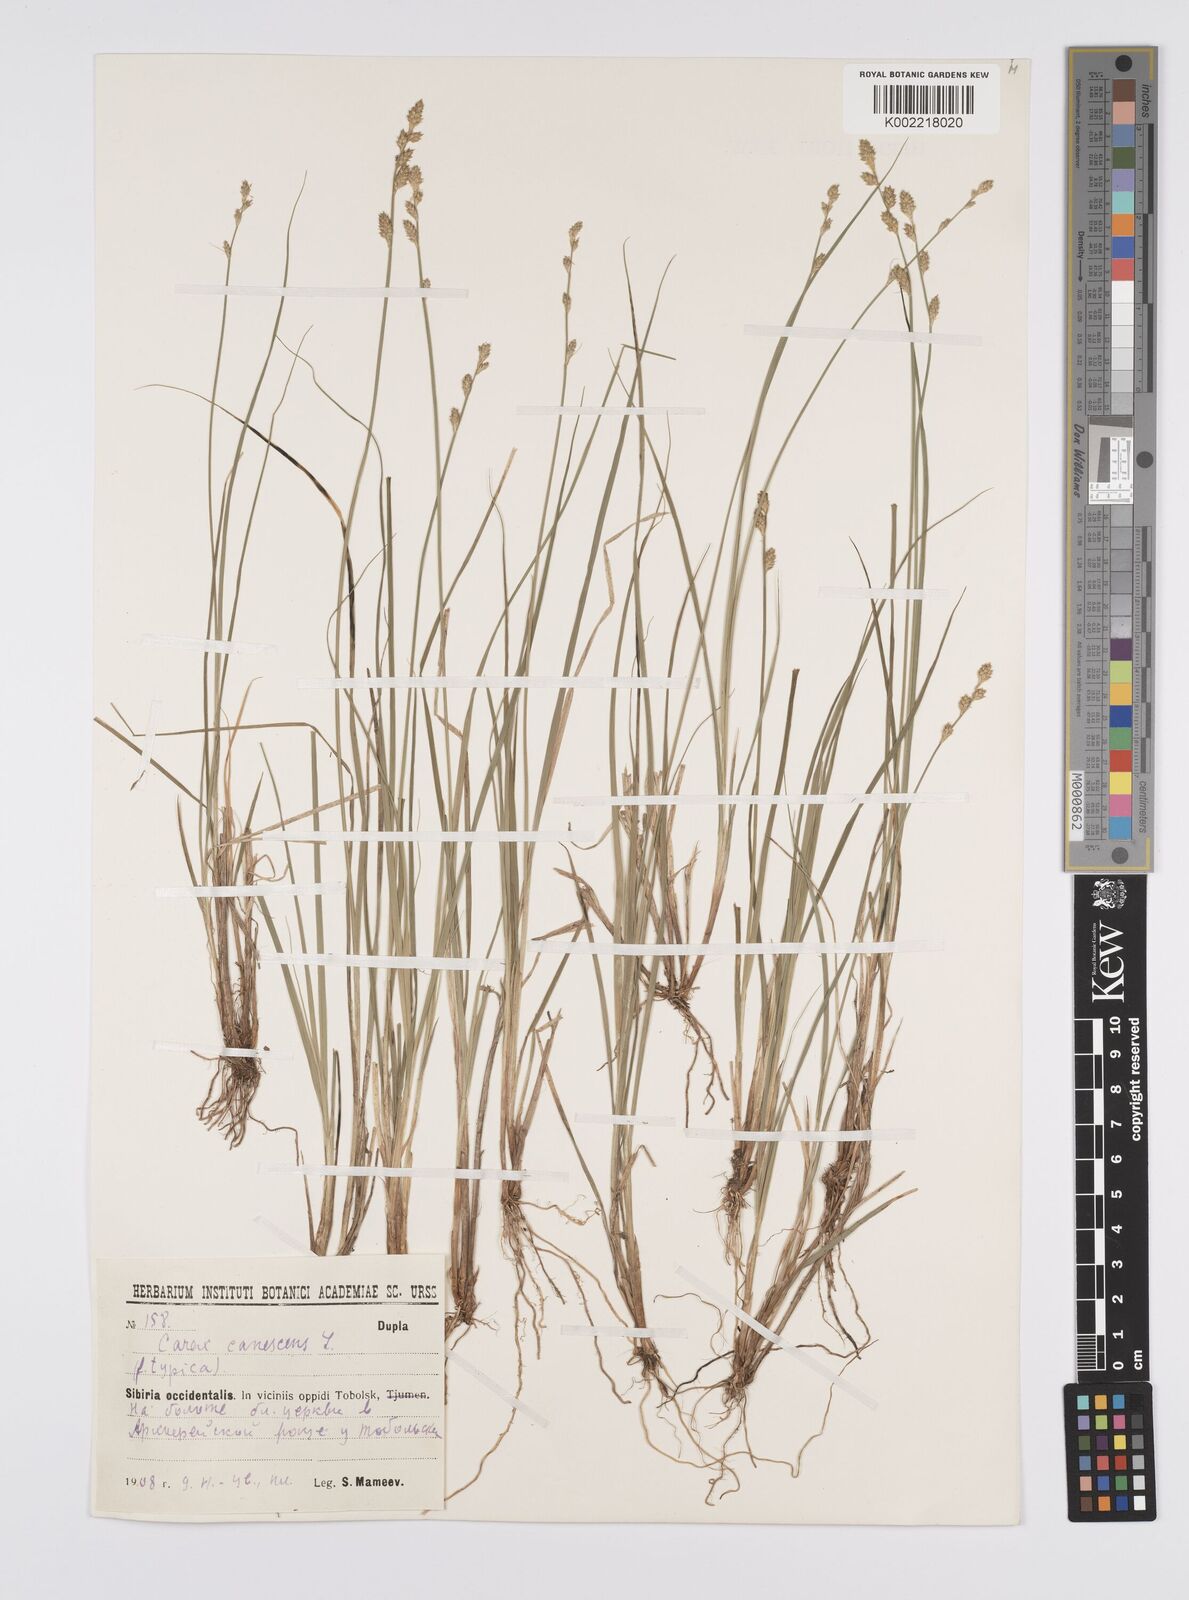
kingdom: Plantae
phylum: Tracheophyta
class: Liliopsida
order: Poales
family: Cyperaceae
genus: Carex
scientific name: Carex canescens
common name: White sedge
